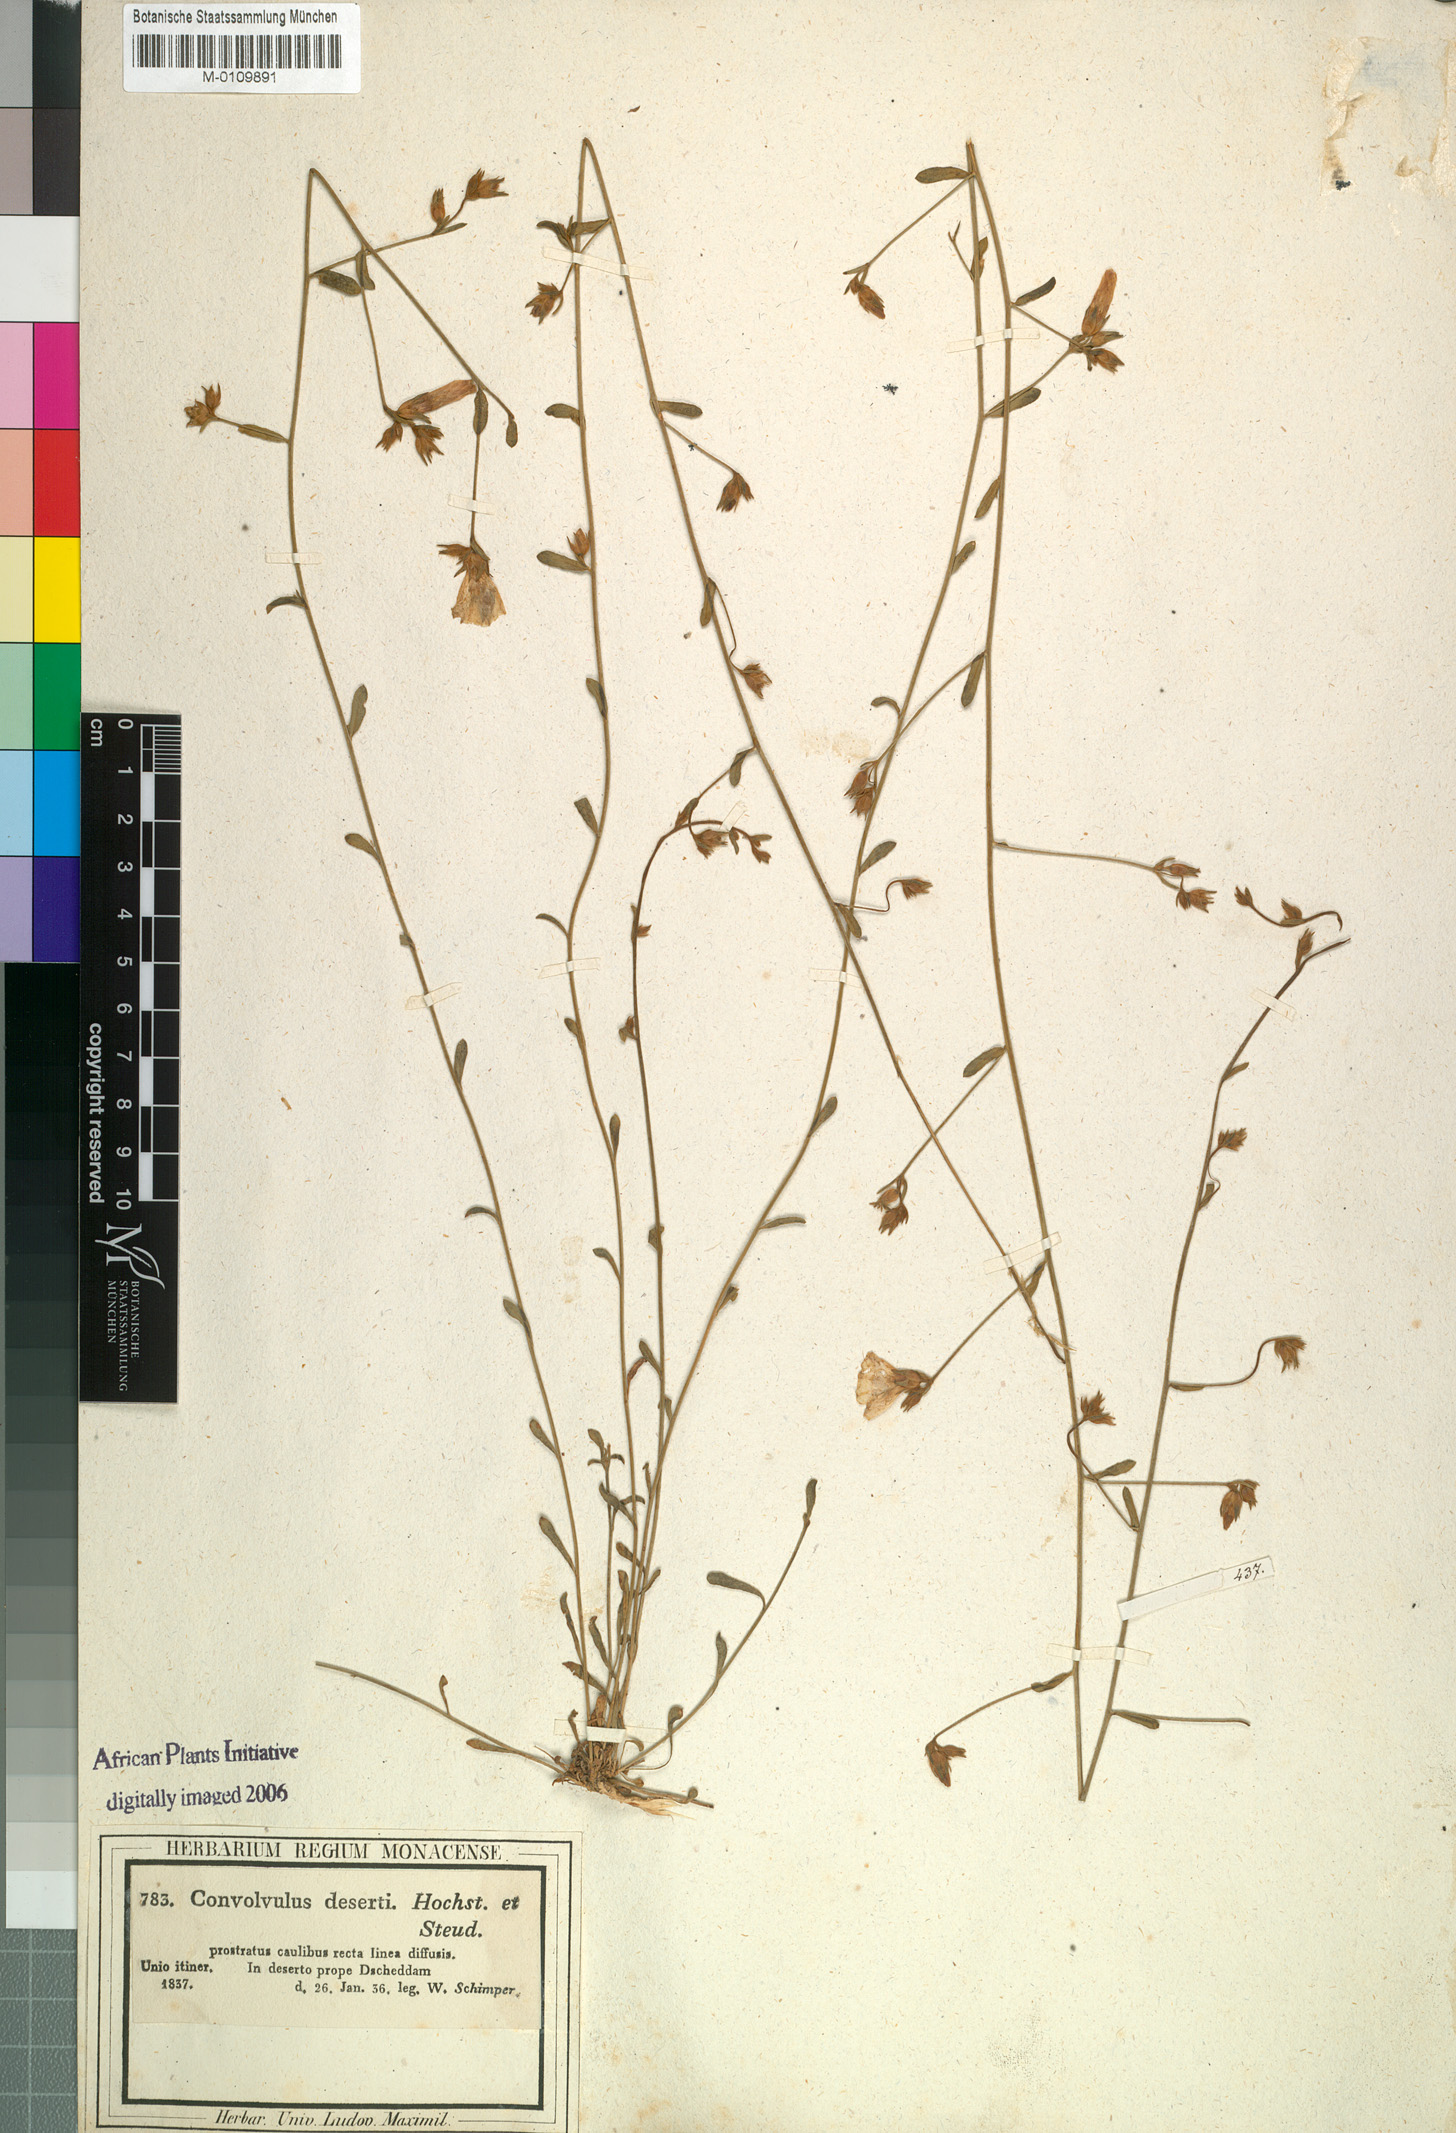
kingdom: Plantae
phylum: Tracheophyta
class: Magnoliopsida
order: Solanales
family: Convolvulaceae
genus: Convolvulus
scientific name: Convolvulus prostratus
